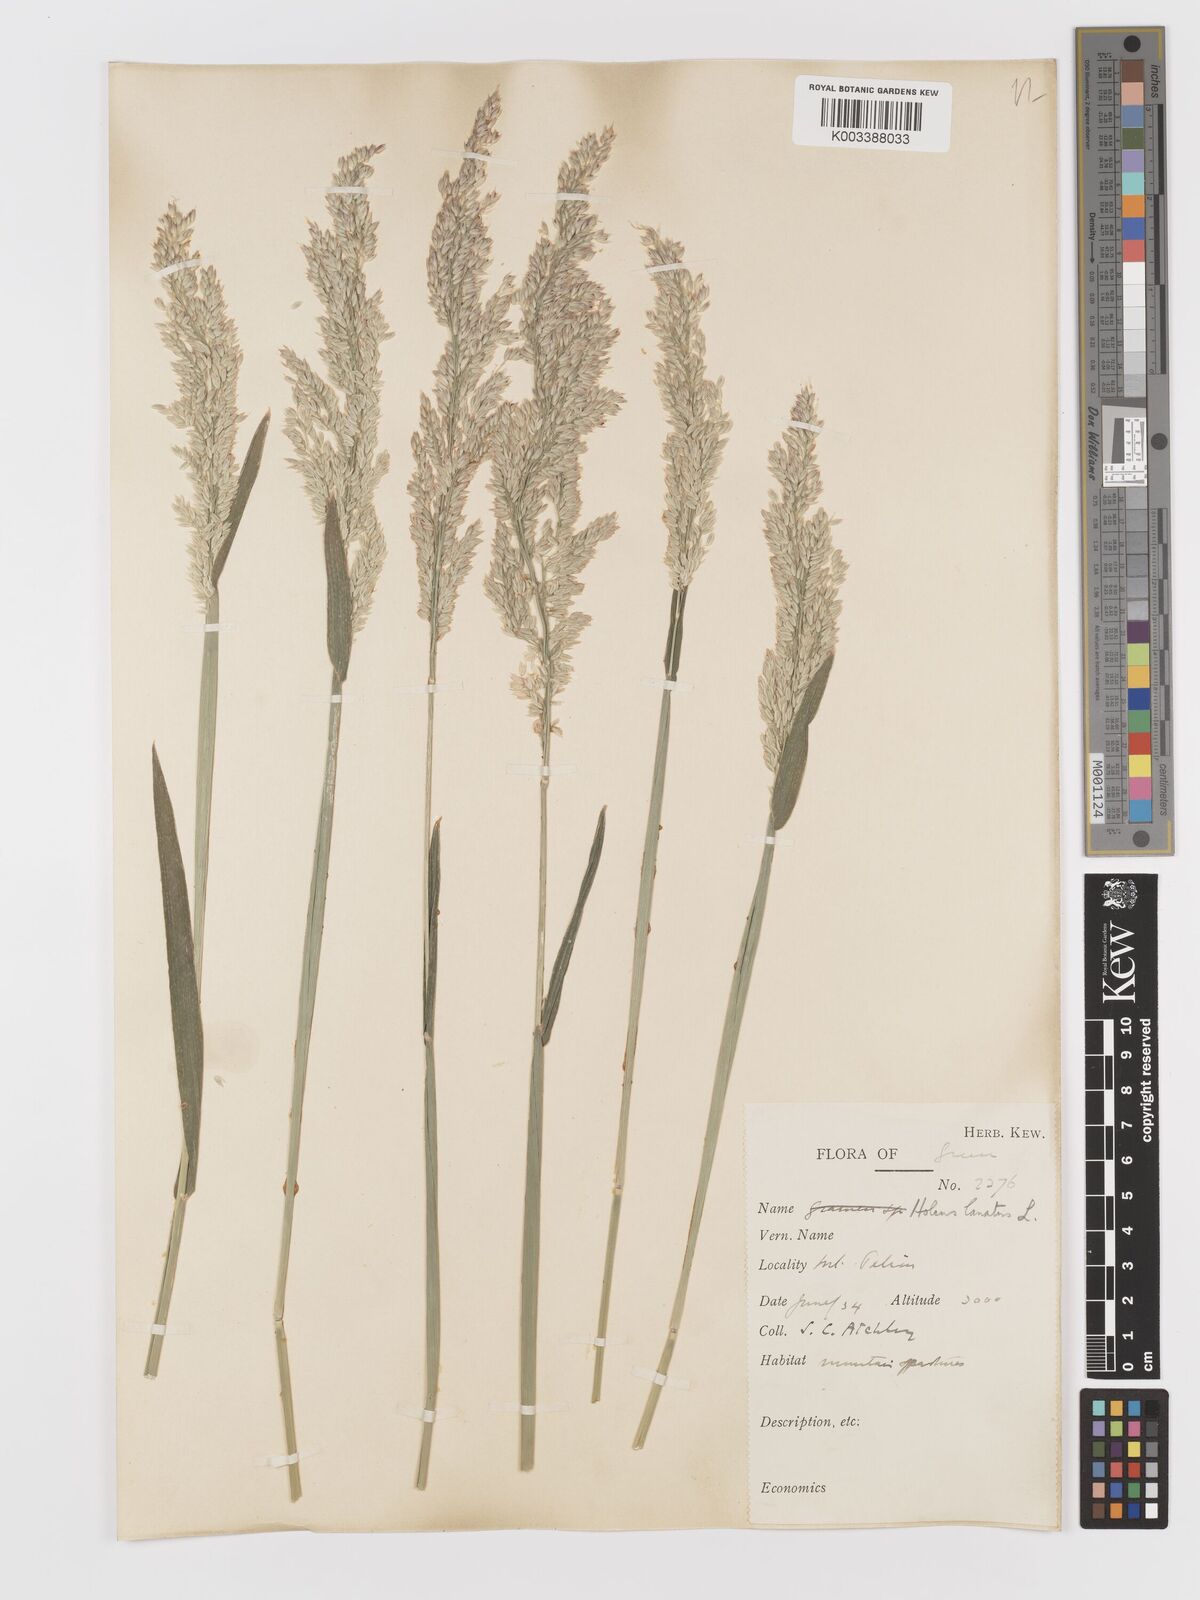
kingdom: Plantae
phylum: Tracheophyta
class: Liliopsida
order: Poales
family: Poaceae
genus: Holcus
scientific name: Holcus lanatus
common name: Yorkshire-fog
